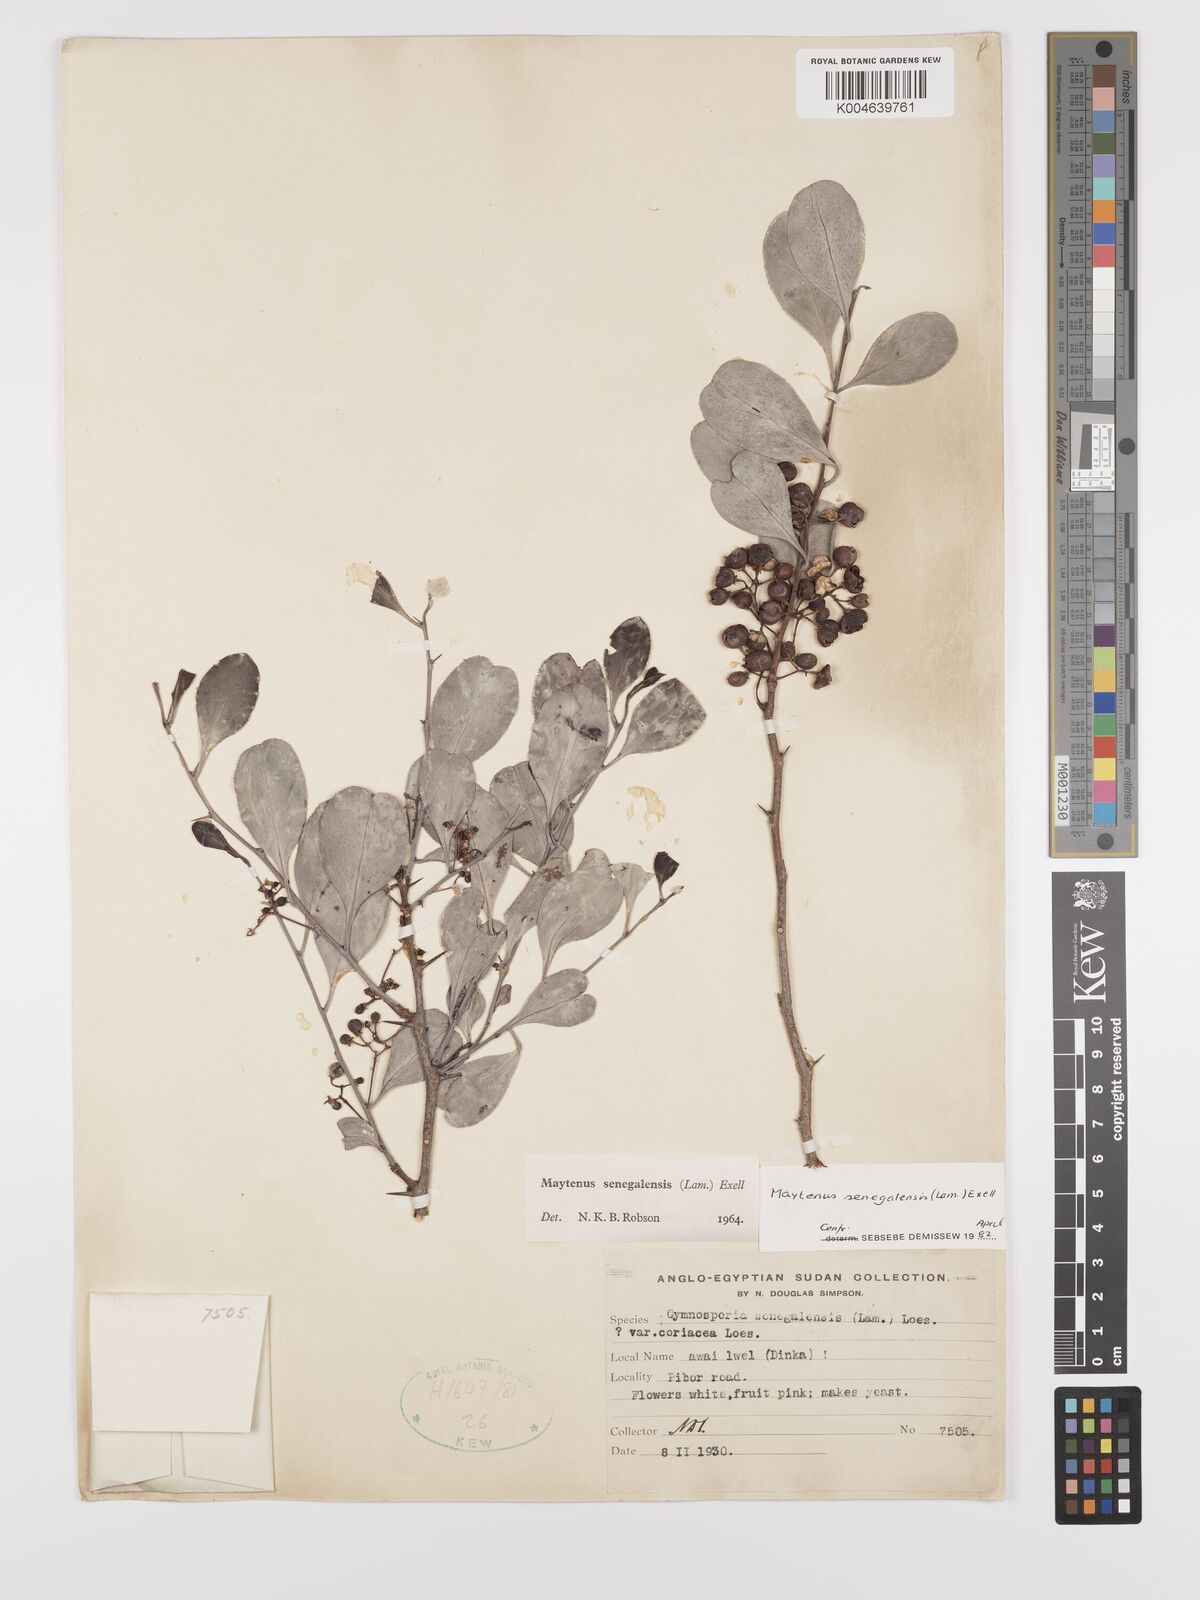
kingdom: Plantae
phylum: Tracheophyta
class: Magnoliopsida
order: Celastrales
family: Celastraceae
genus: Gymnosporia
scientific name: Gymnosporia senegalensis
